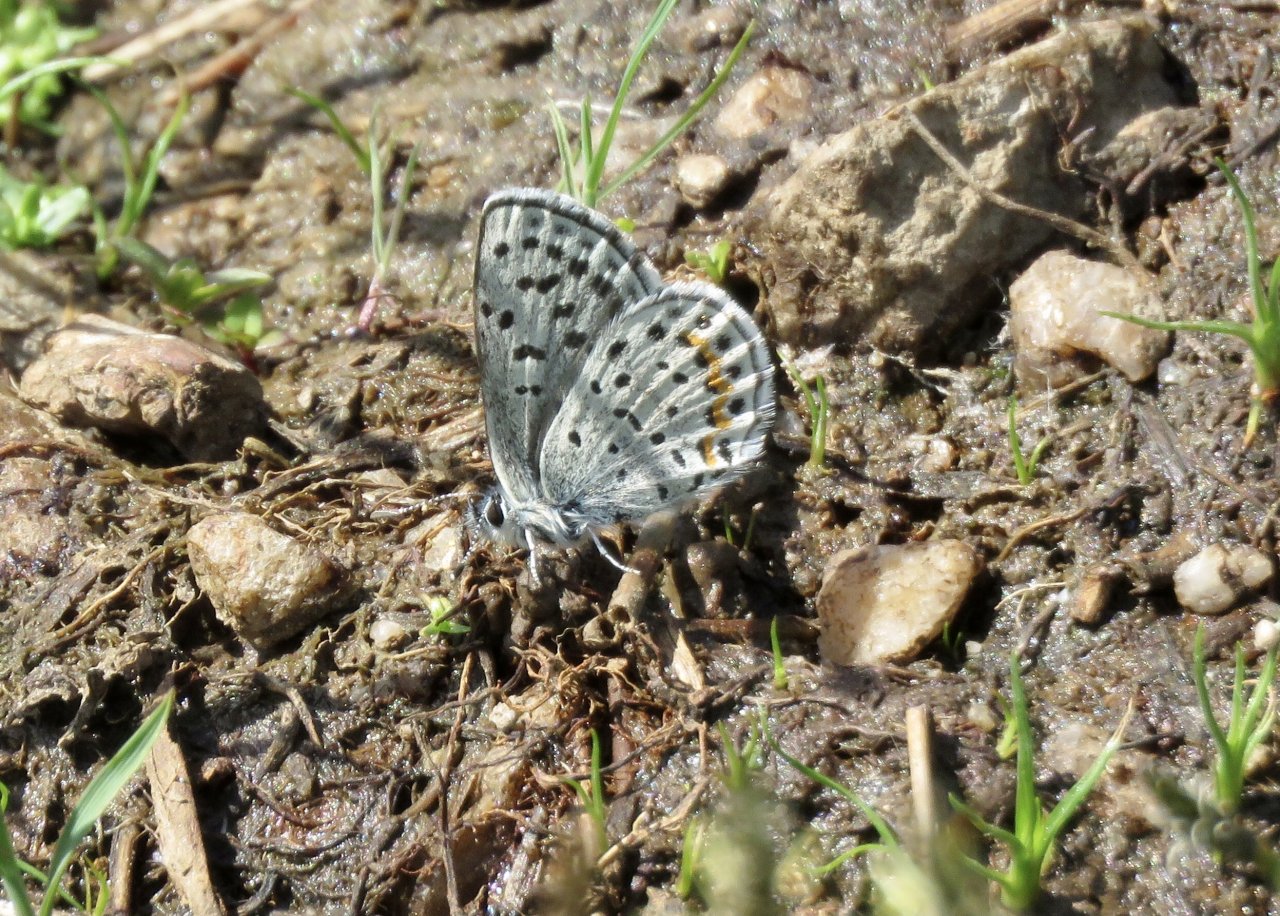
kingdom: Animalia
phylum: Arthropoda
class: Insecta
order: Lepidoptera
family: Lycaenidae
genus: Euphilotes
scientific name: Euphilotes enoptes
